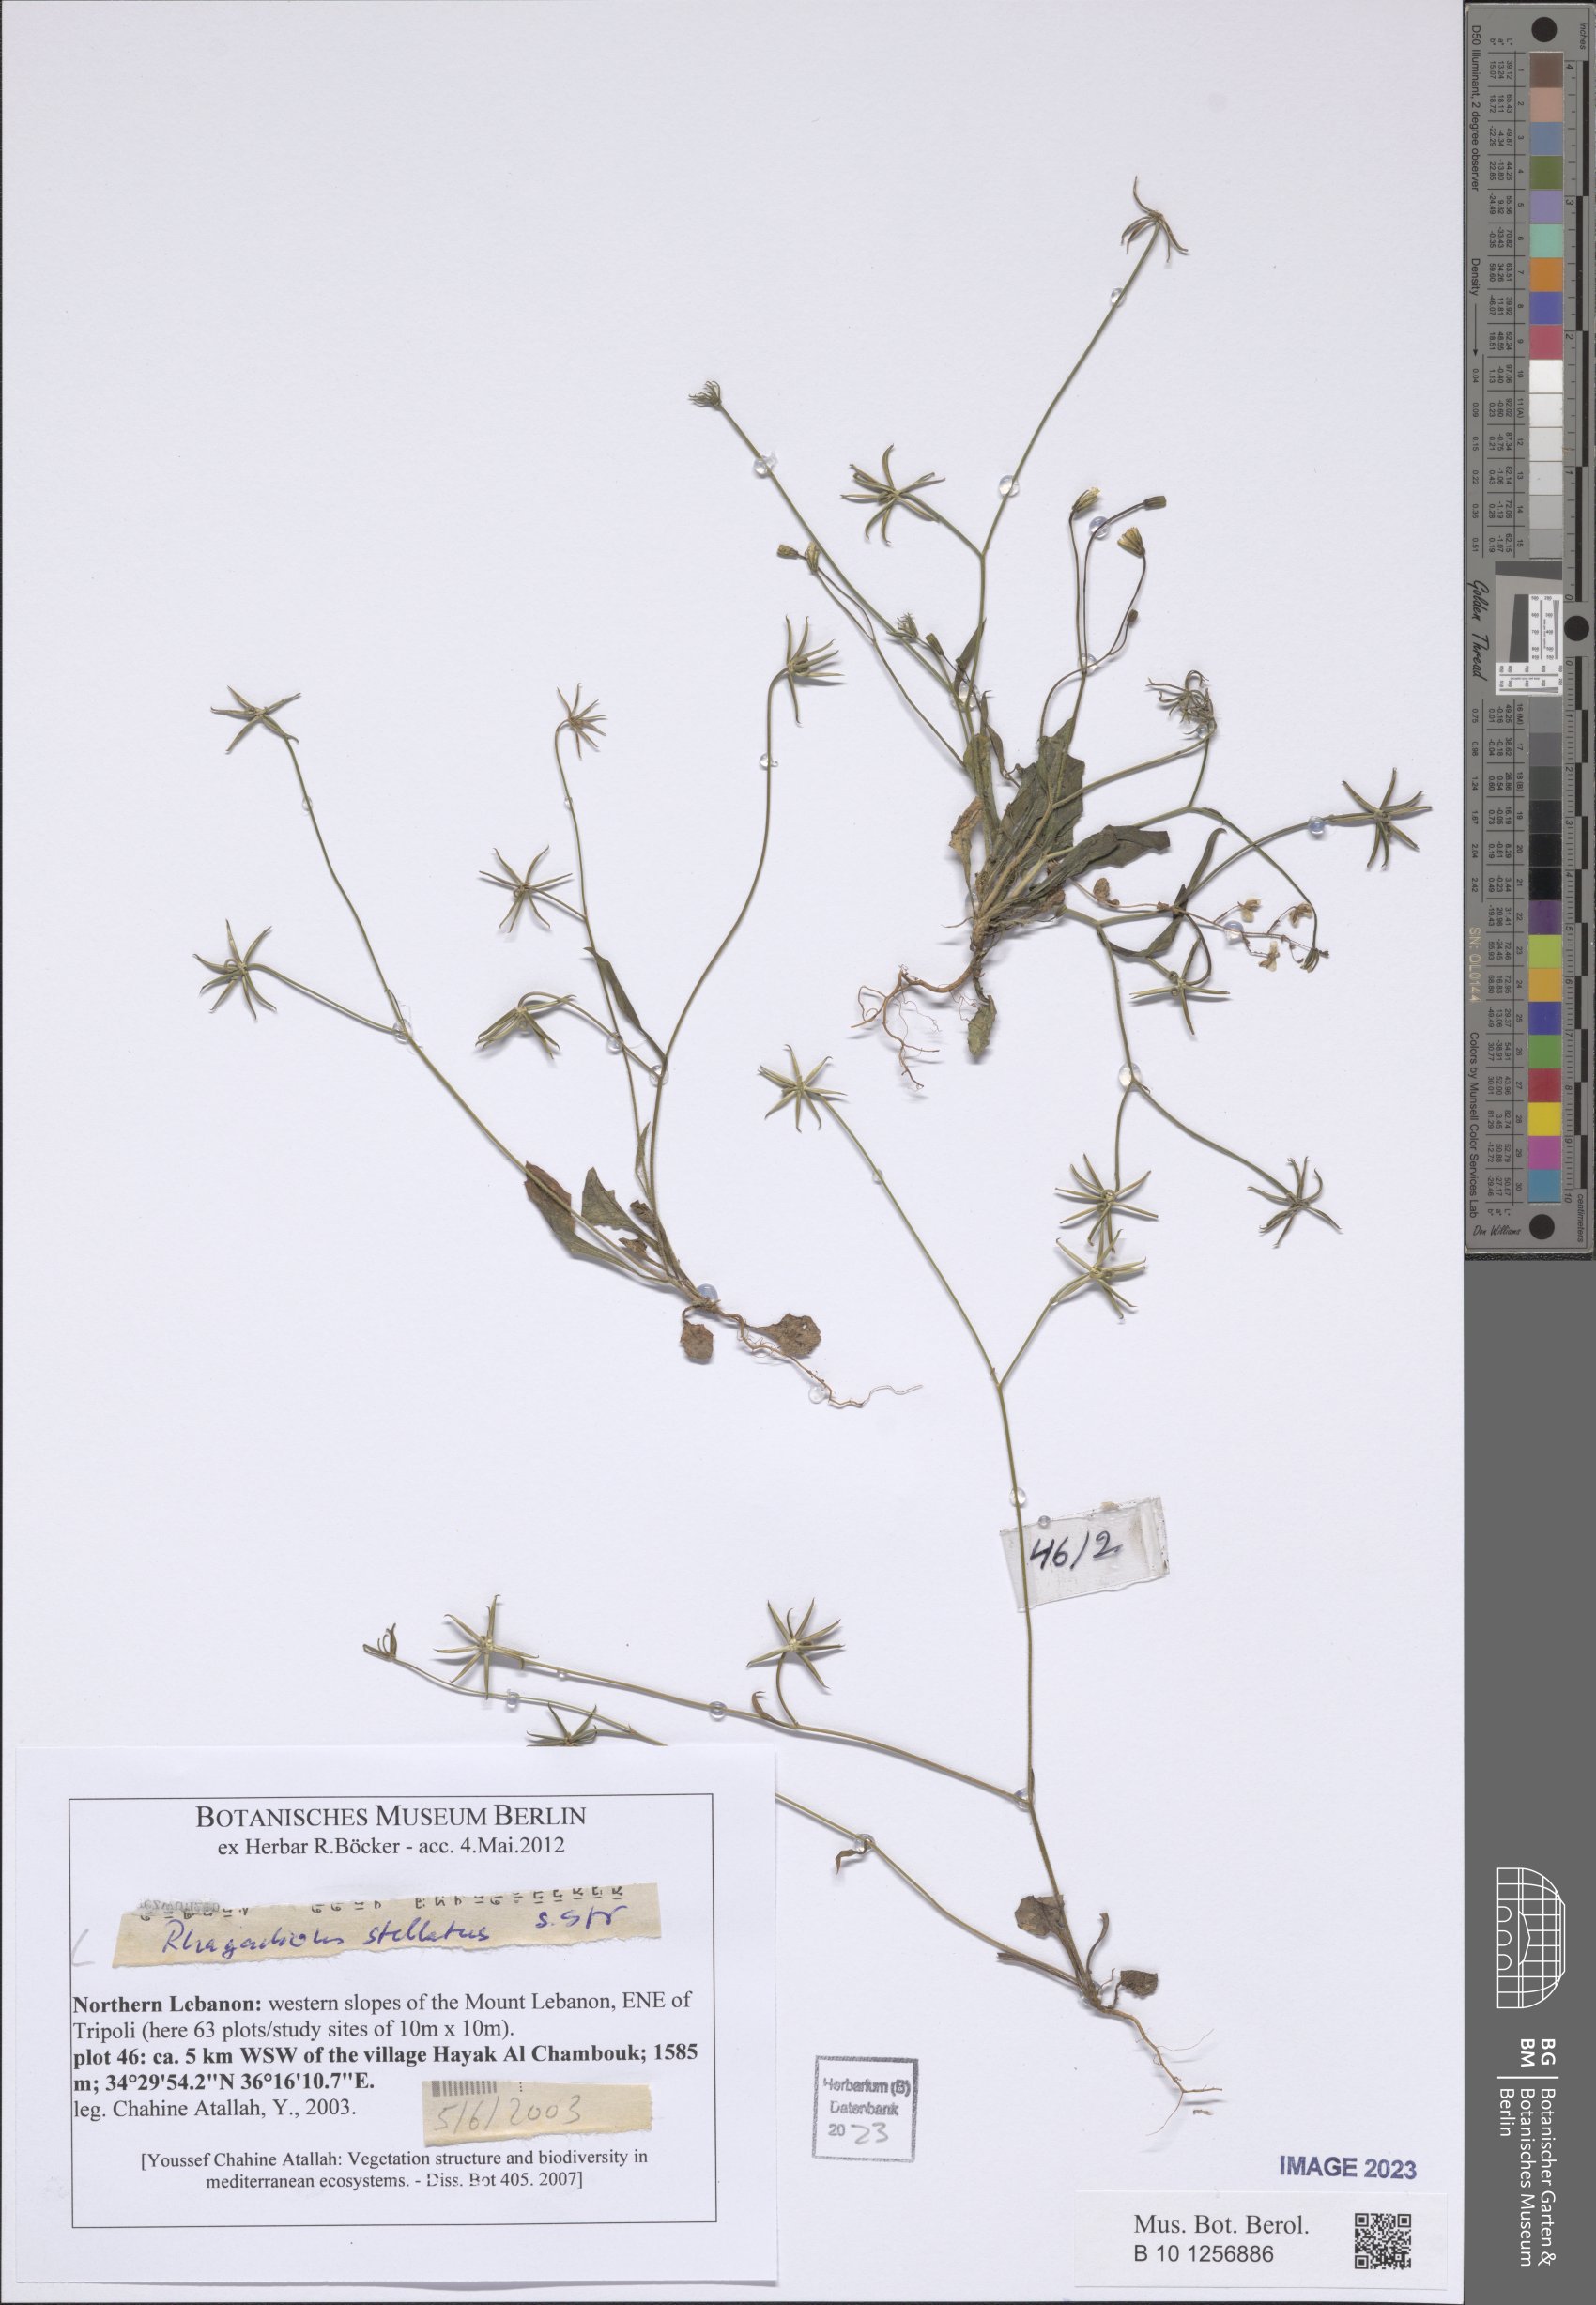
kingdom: Plantae
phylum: Tracheophyta
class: Magnoliopsida
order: Asterales
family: Asteraceae
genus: Rhagadiolus
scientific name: Rhagadiolus stellatus
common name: Star hawkbit
